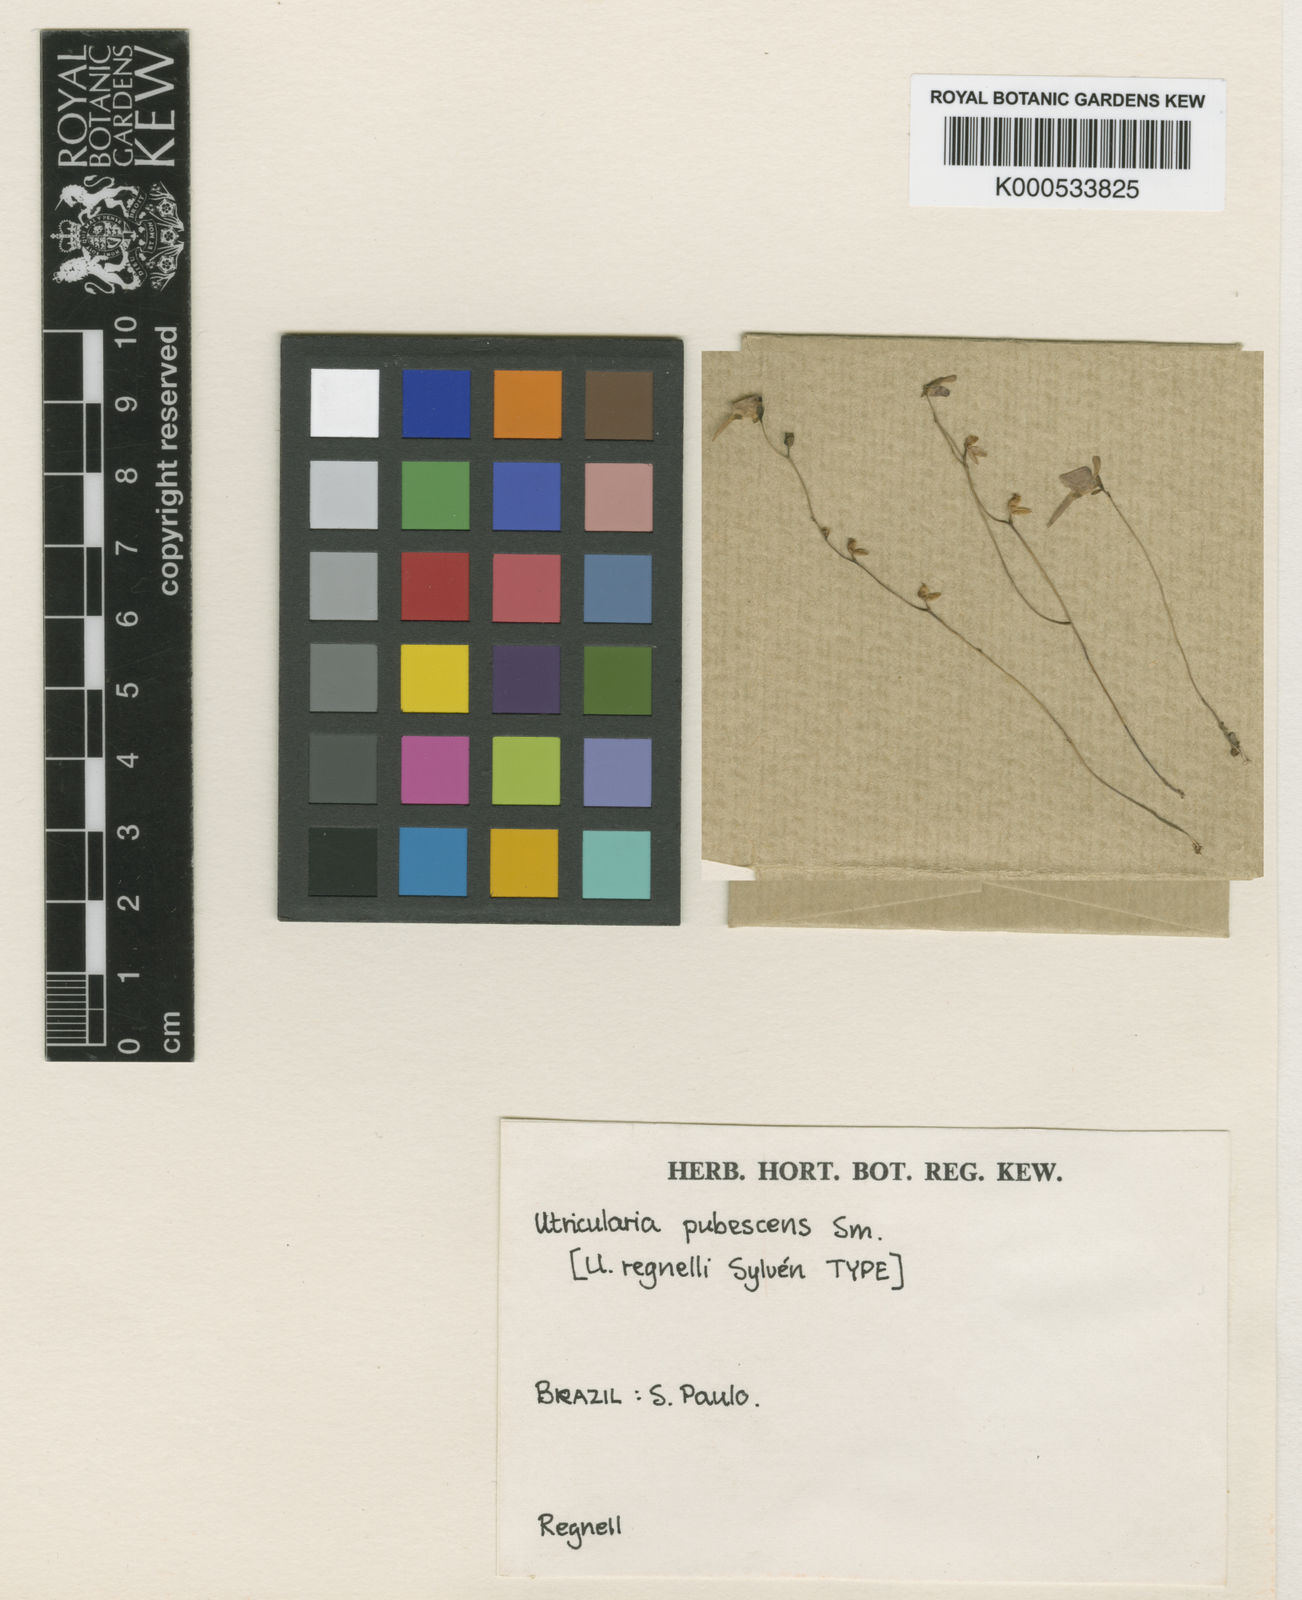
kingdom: Plantae
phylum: Tracheophyta
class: Magnoliopsida
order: Lamiales
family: Lentibulariaceae
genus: Utricularia
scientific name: Utricularia pubescens
